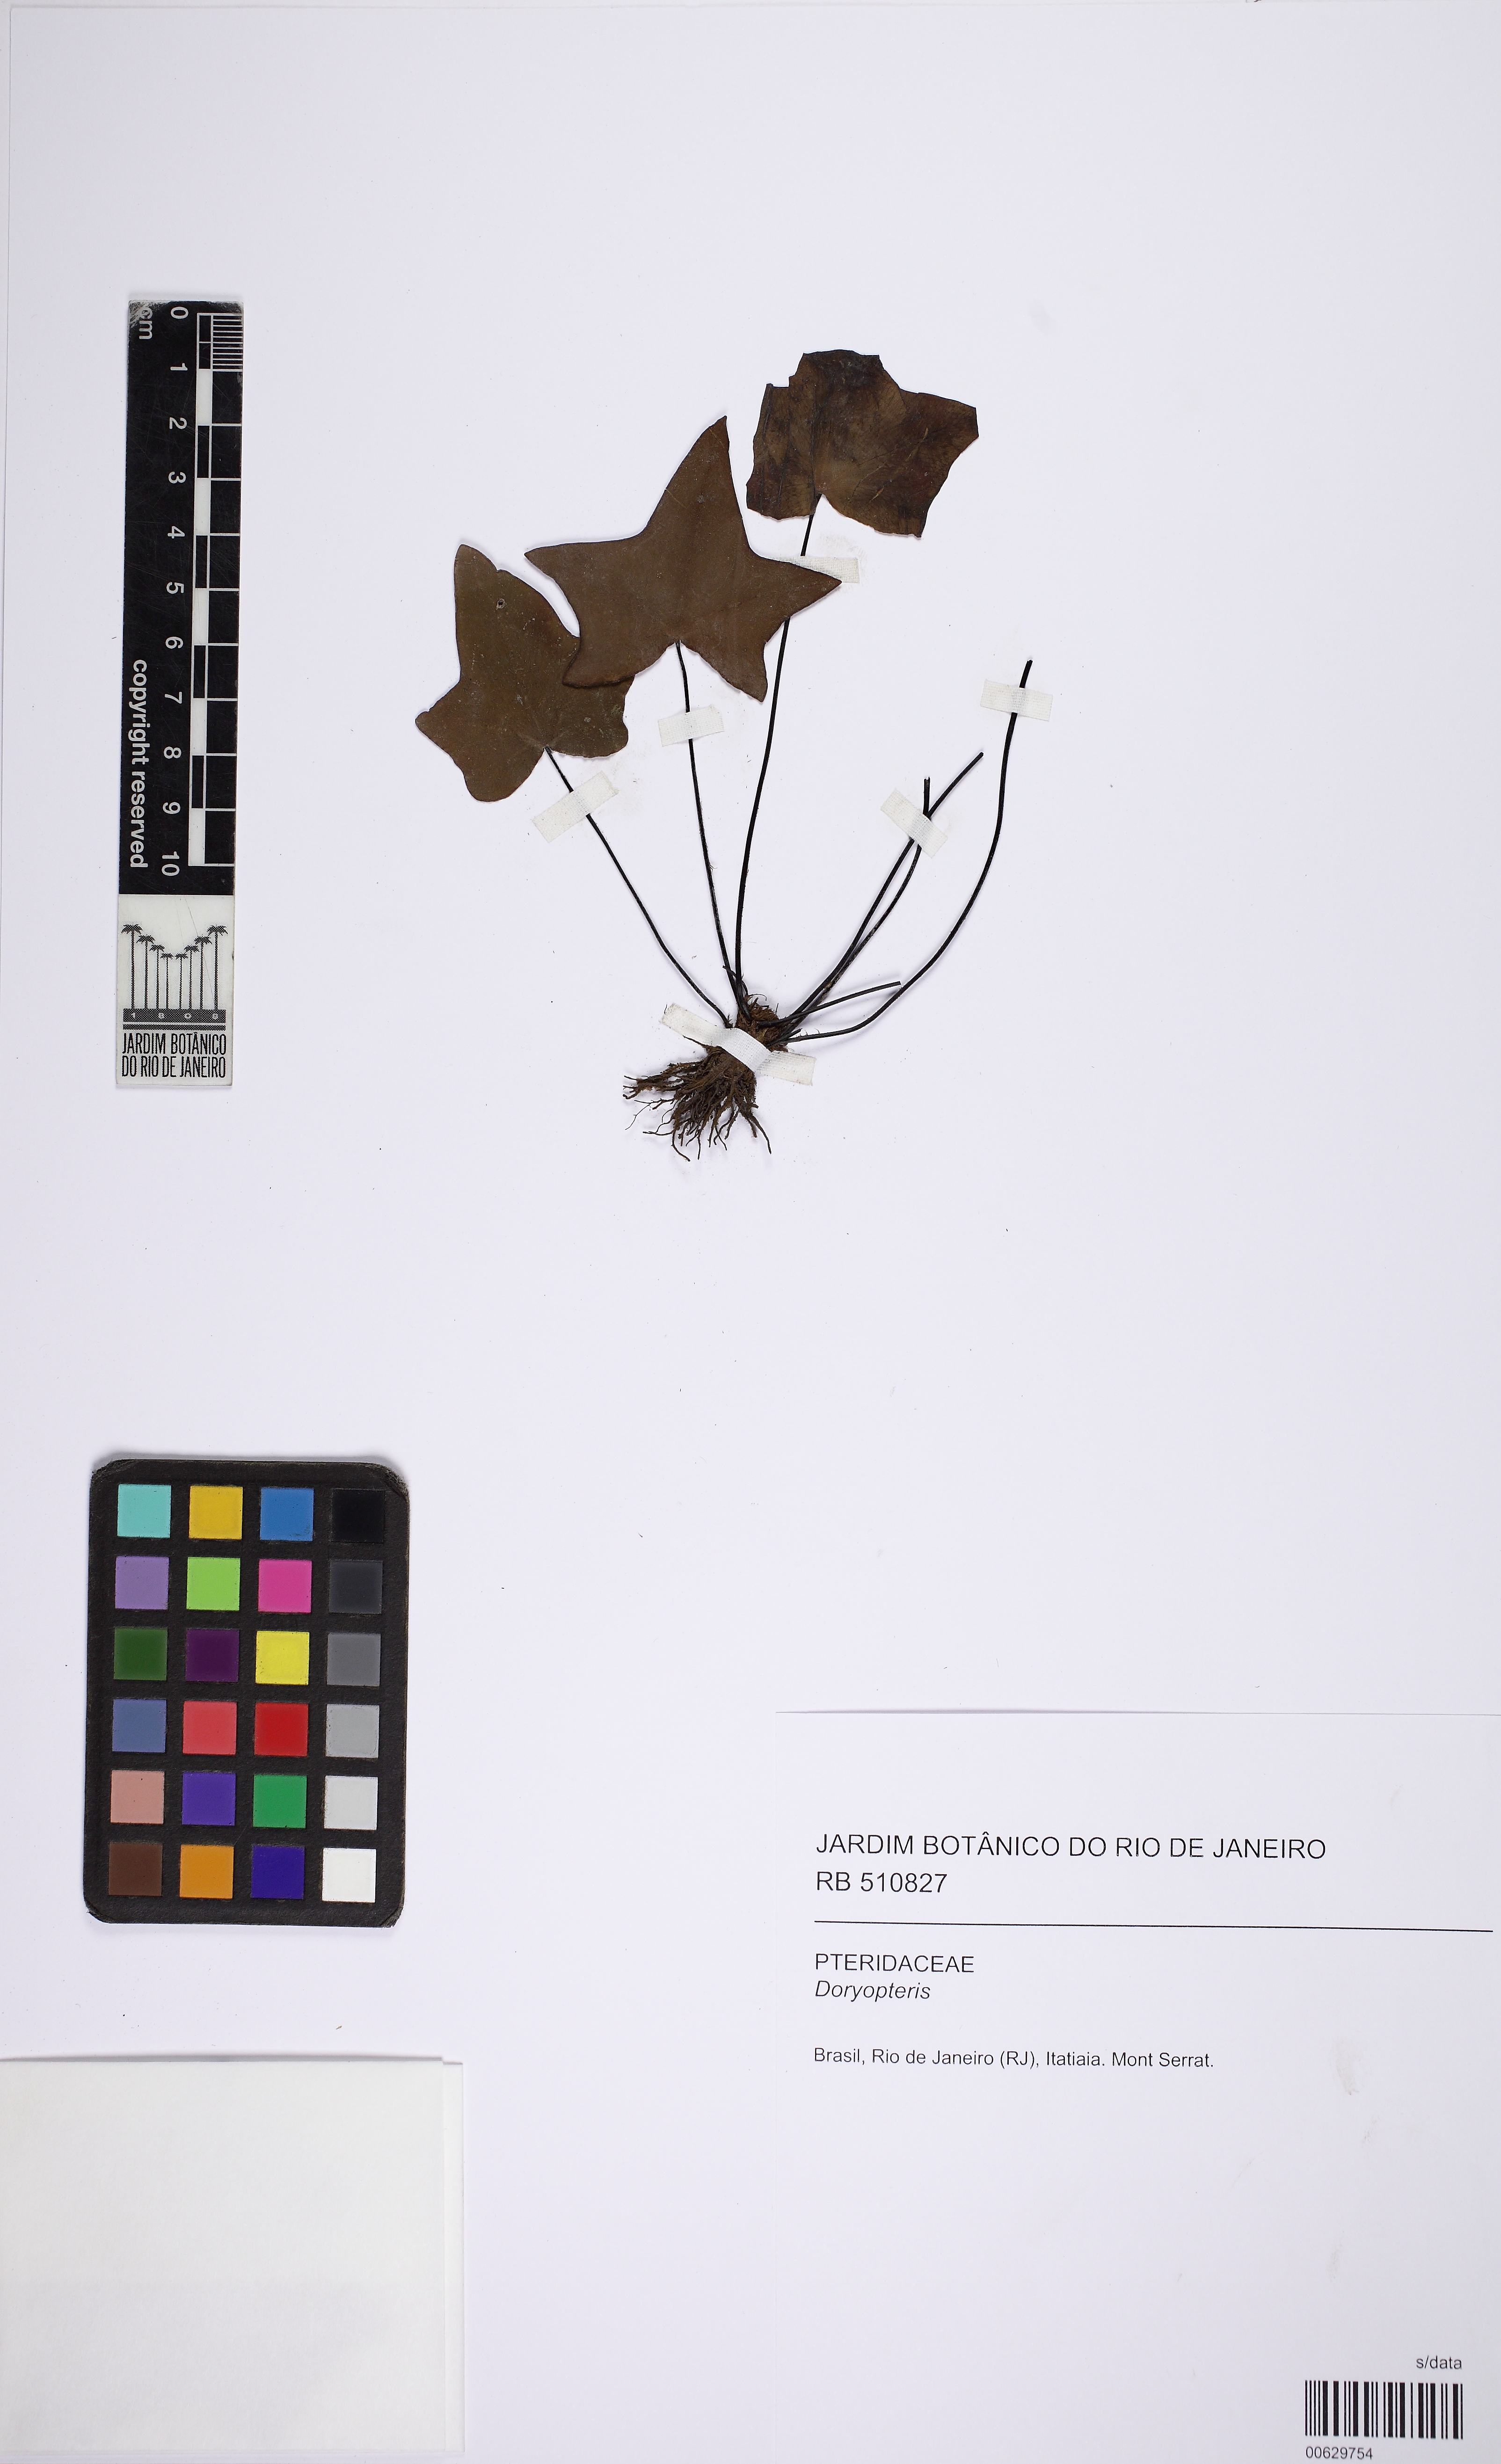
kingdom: Plantae
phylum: Tracheophyta
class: Polypodiopsida
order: Polypodiales
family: Pteridaceae
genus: Doryopteris
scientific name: Doryopteris rediviva
